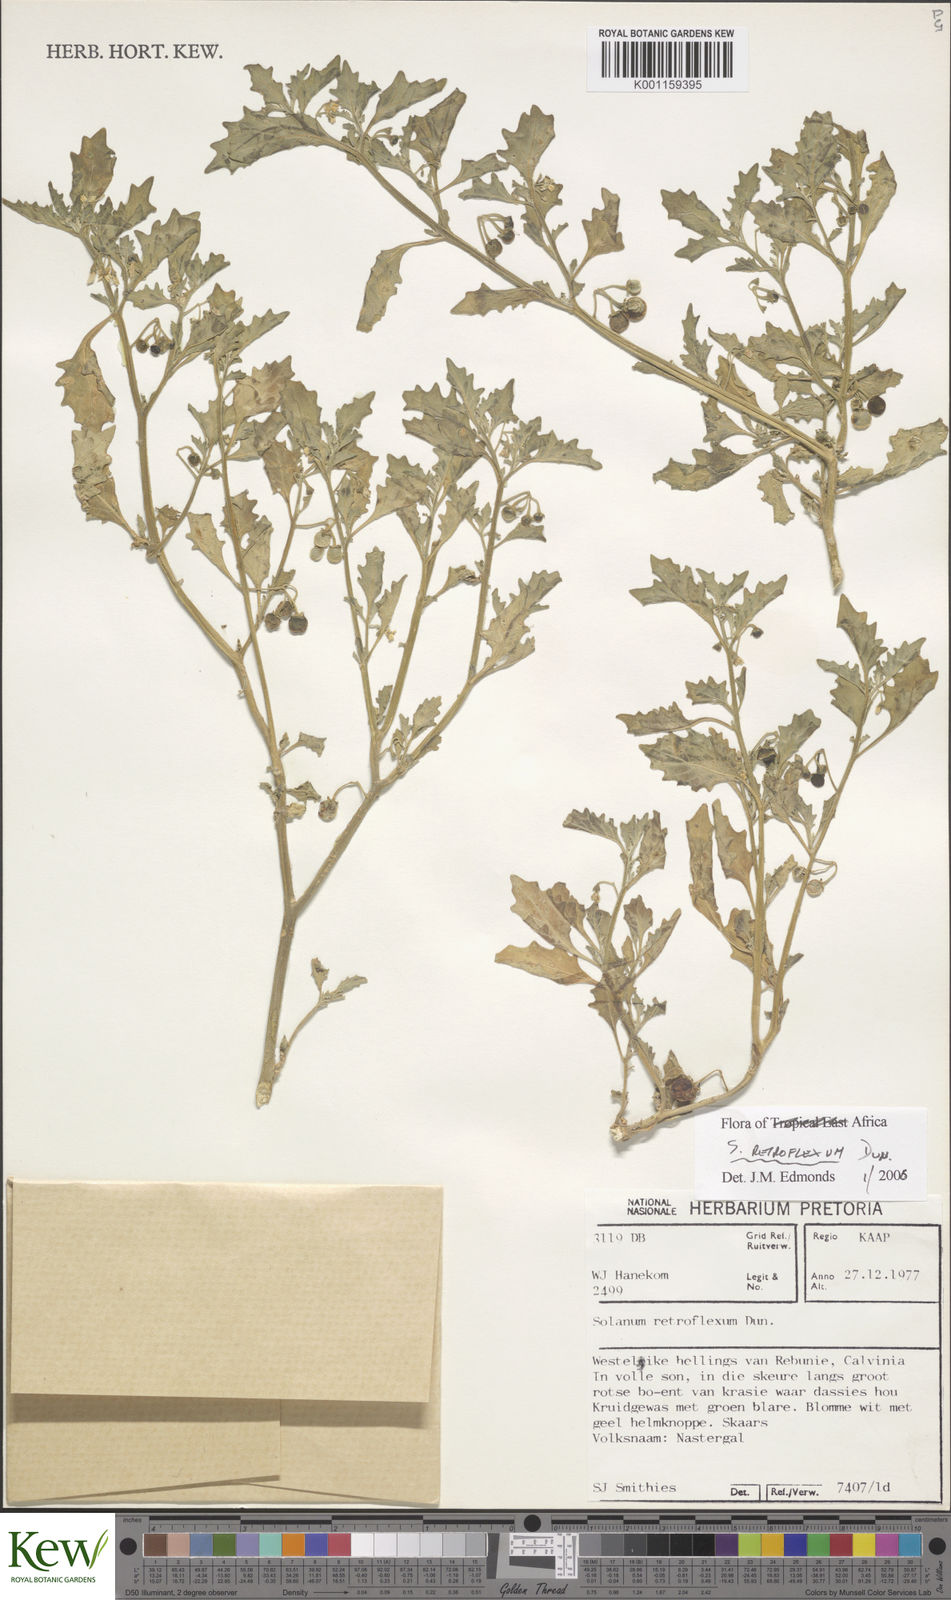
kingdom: Plantae
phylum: Tracheophyta
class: Magnoliopsida
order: Solanales
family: Solanaceae
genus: Solanum
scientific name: Solanum retroflexum
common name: Wonderberry
